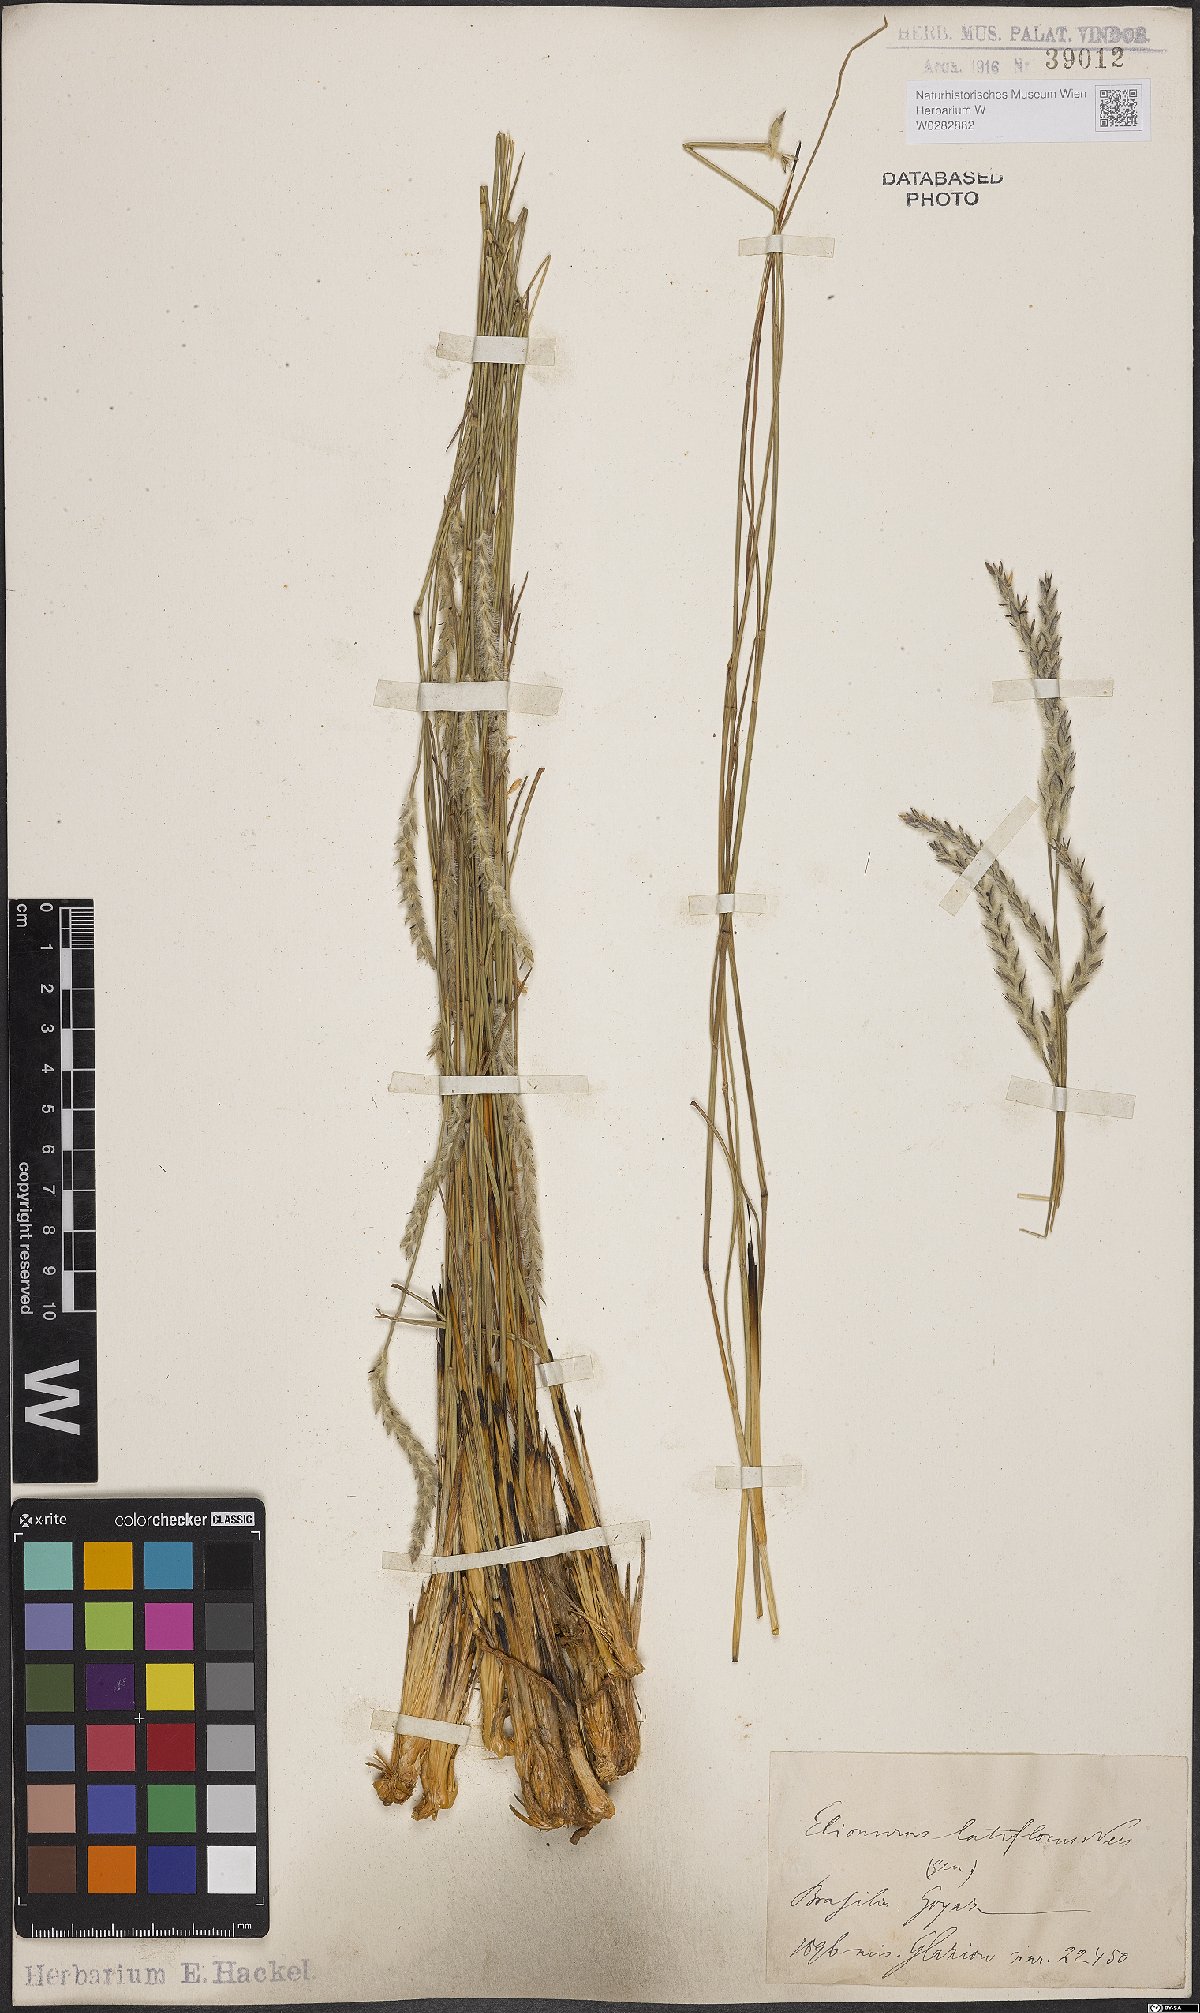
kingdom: Plantae
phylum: Tracheophyta
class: Liliopsida
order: Poales
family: Poaceae
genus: Elionurus
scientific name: Elionurus muticus
